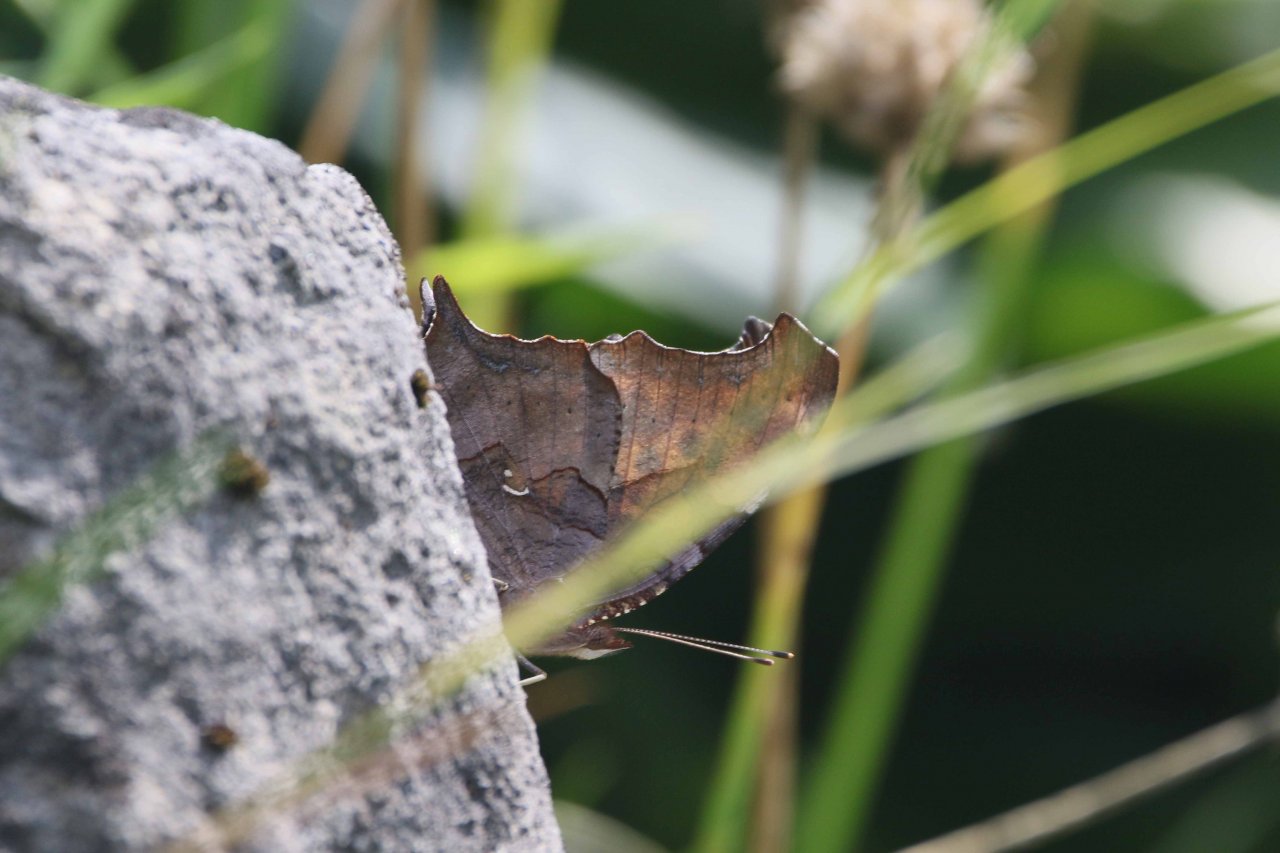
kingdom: Animalia
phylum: Arthropoda
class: Insecta
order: Lepidoptera
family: Nymphalidae
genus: Polygonia
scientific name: Polygonia interrogationis
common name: Question Mark
